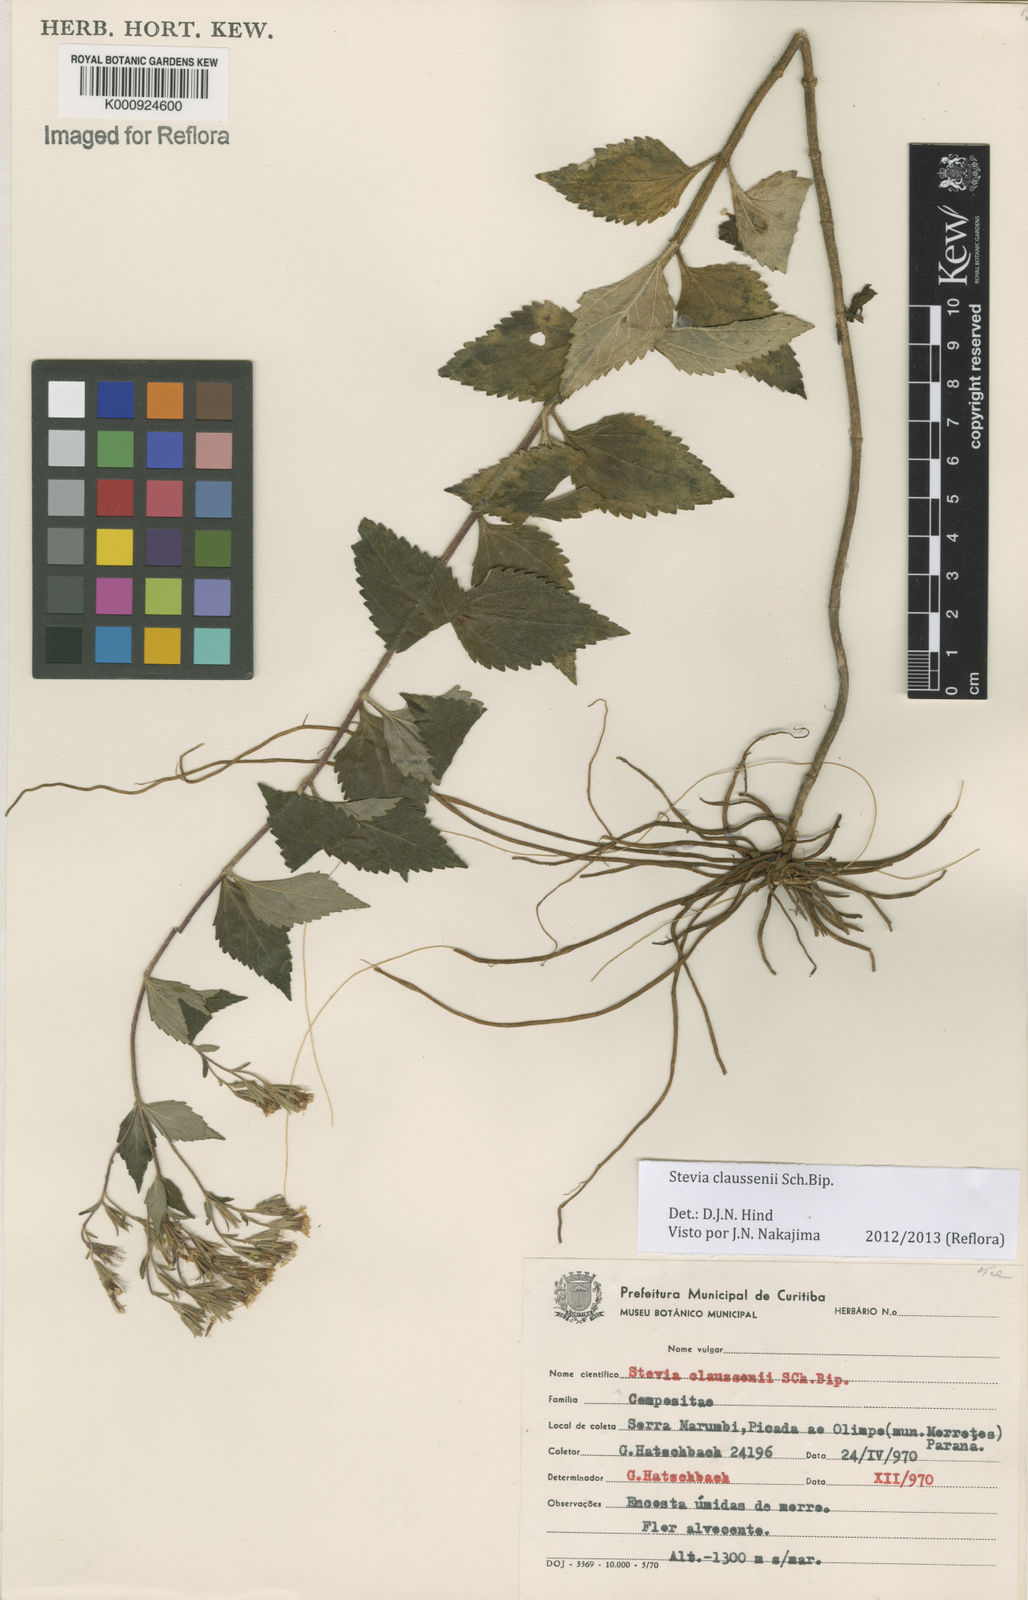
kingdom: Plantae
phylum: Tracheophyta
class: Magnoliopsida
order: Asterales
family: Asteraceae
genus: Stevia
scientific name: Stevia claussenii
